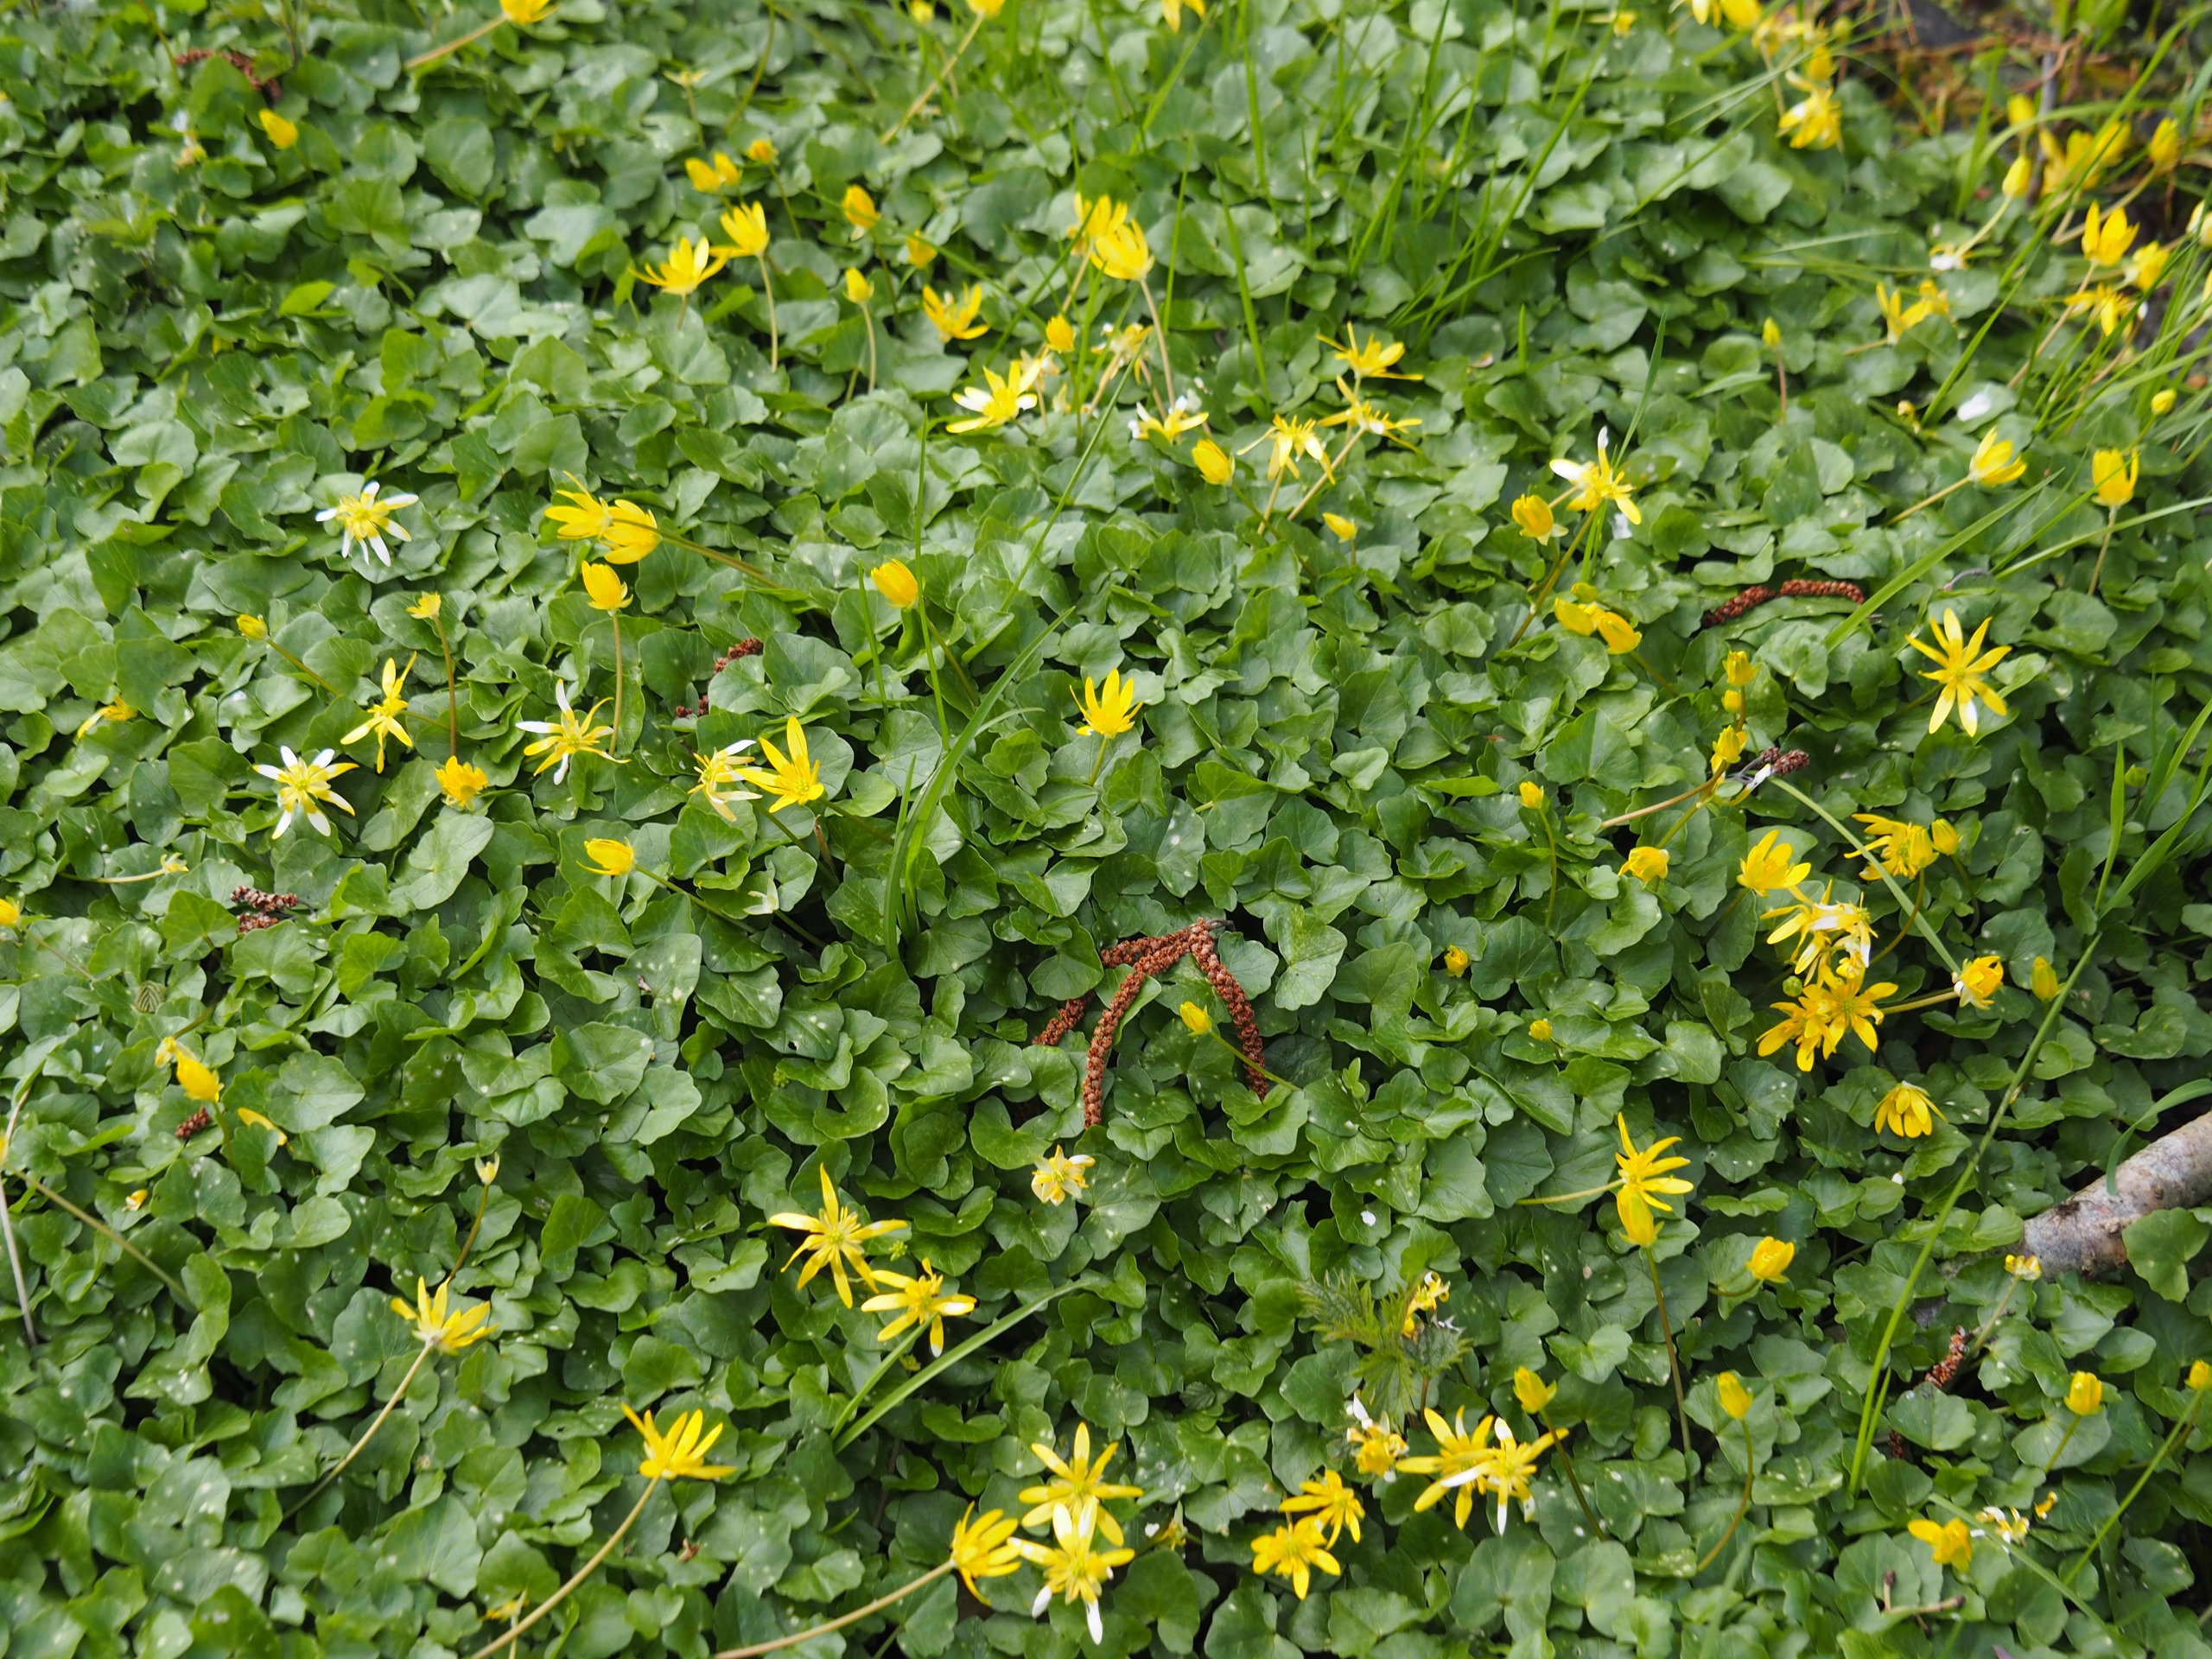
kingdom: Plantae
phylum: Tracheophyta
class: Magnoliopsida
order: Ranunculales
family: Ranunculaceae
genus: Ficaria
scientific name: Ficaria verna
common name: Vorterod
